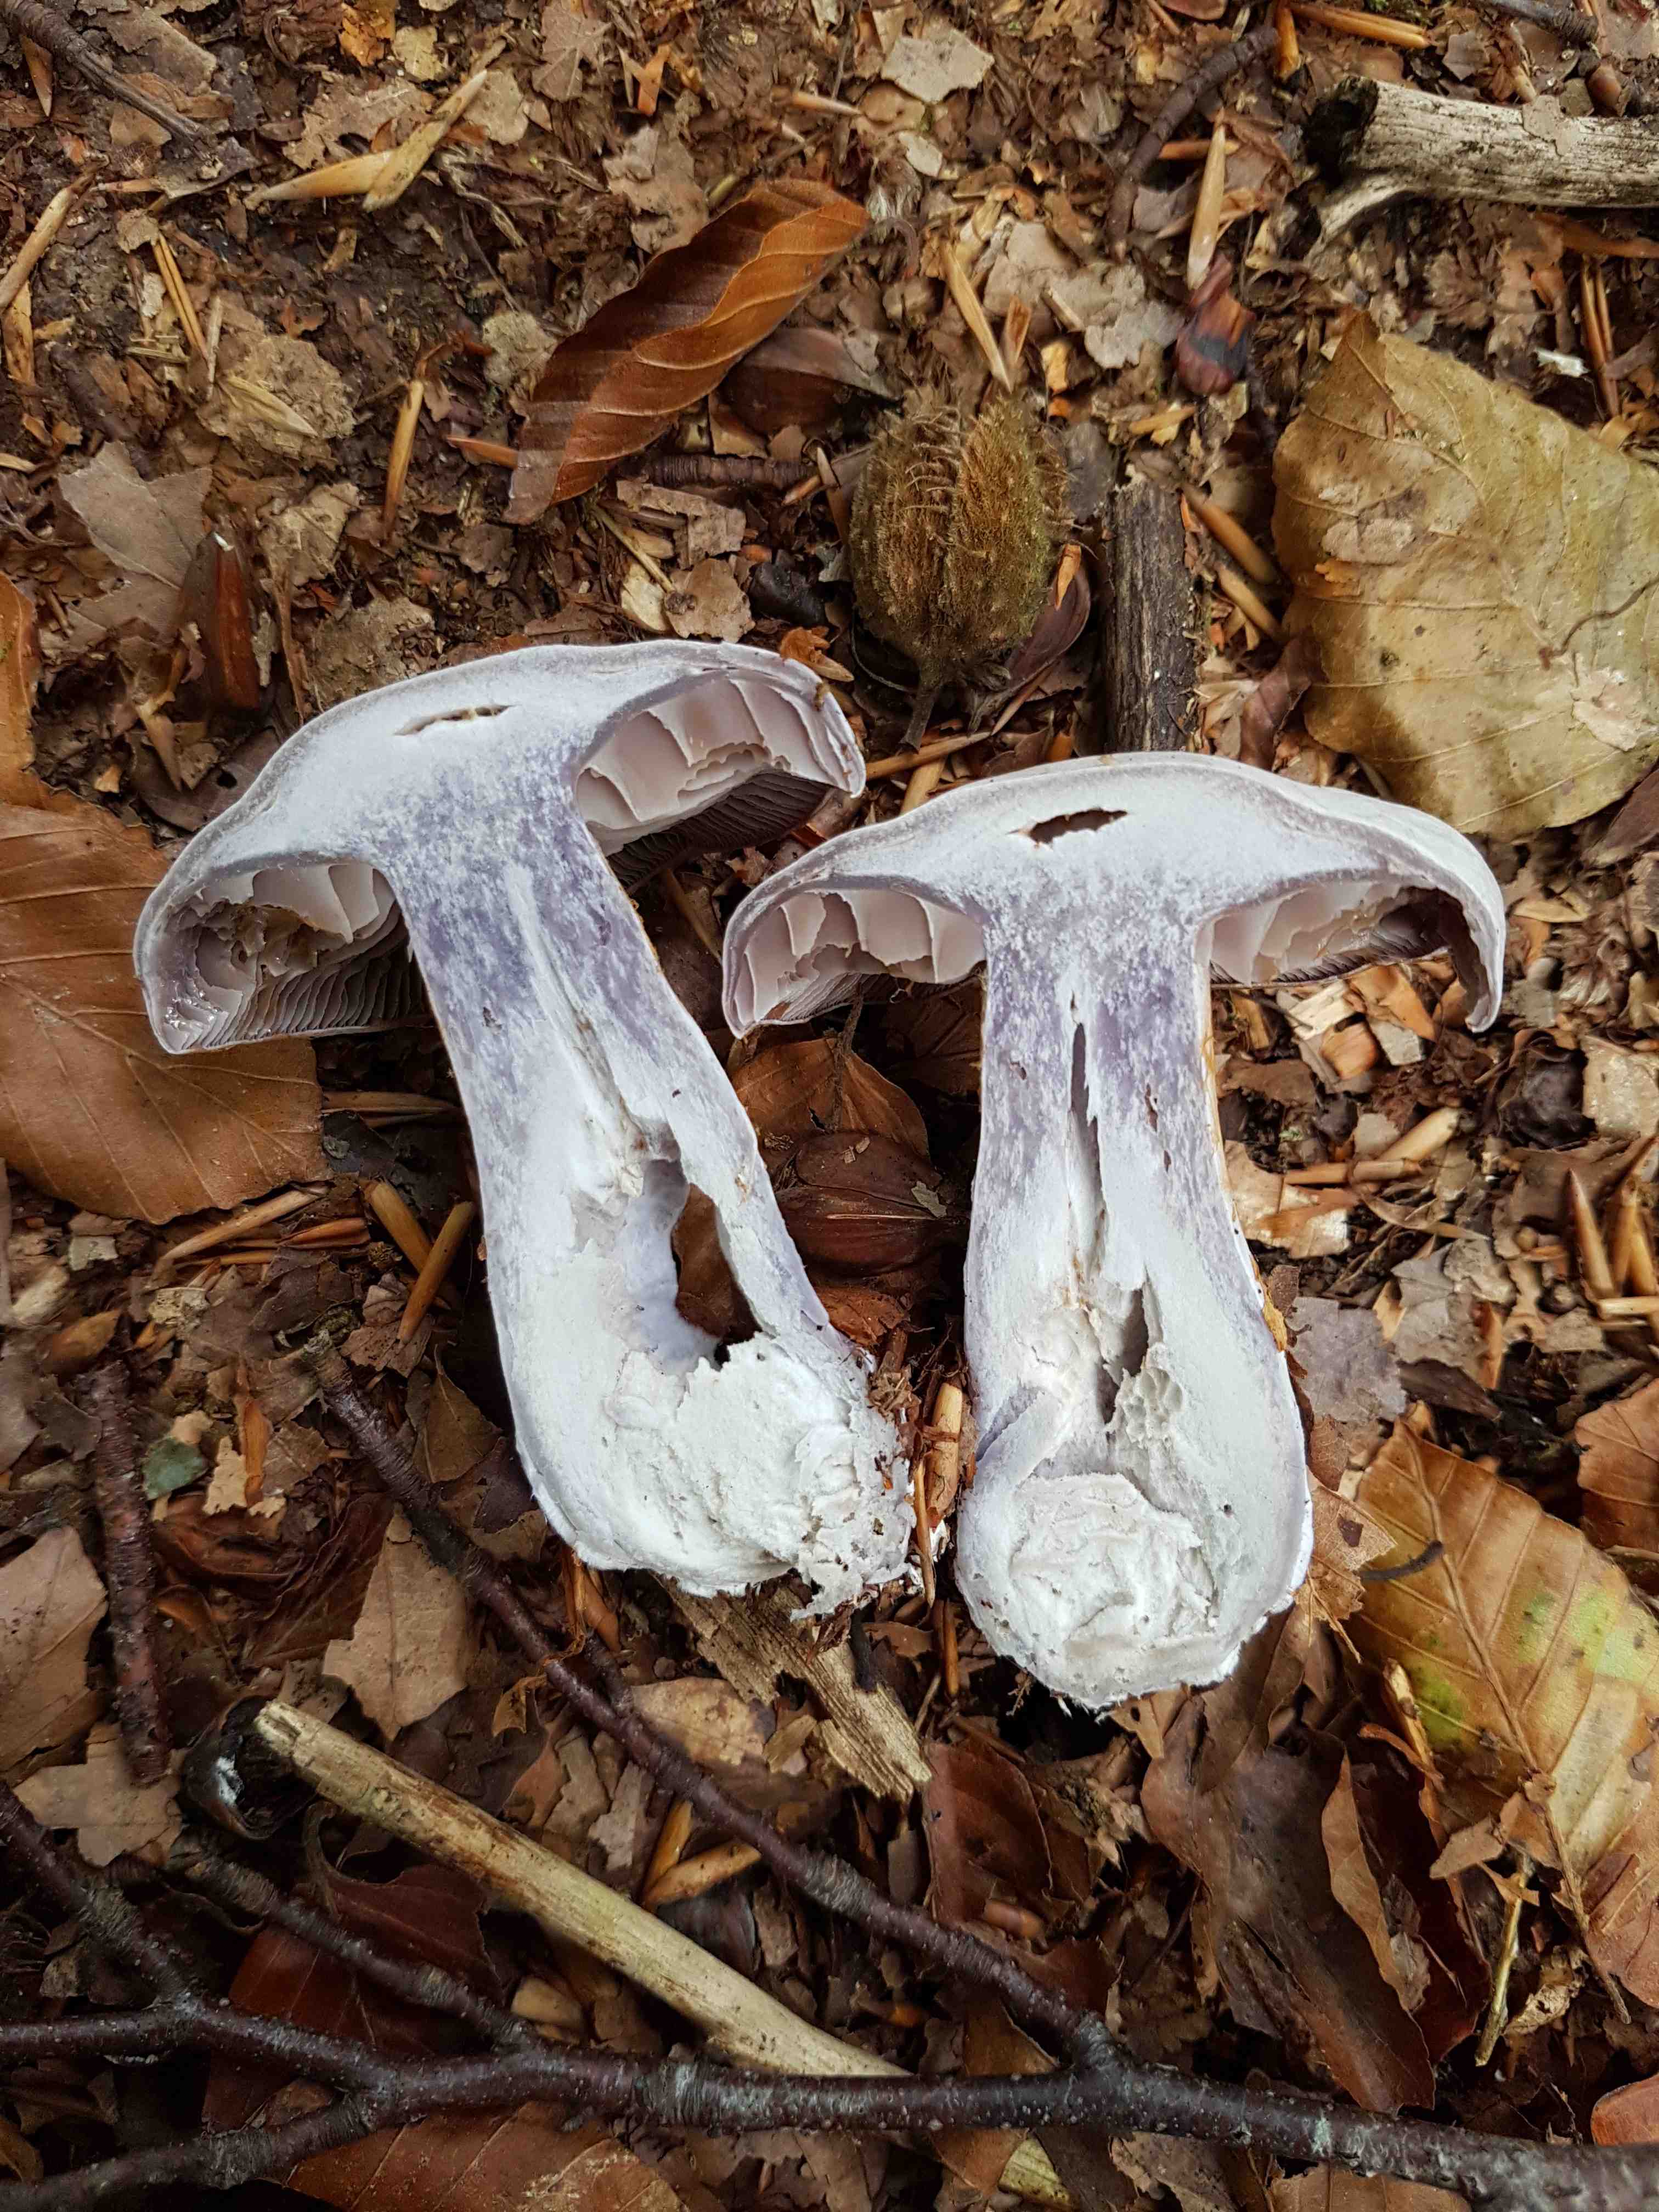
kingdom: Fungi
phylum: Basidiomycota
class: Agaricomycetes
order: Agaricales
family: Cortinariaceae
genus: Cortinarius
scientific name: Cortinarius alboviolaceus
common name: lysviolet slørhat
